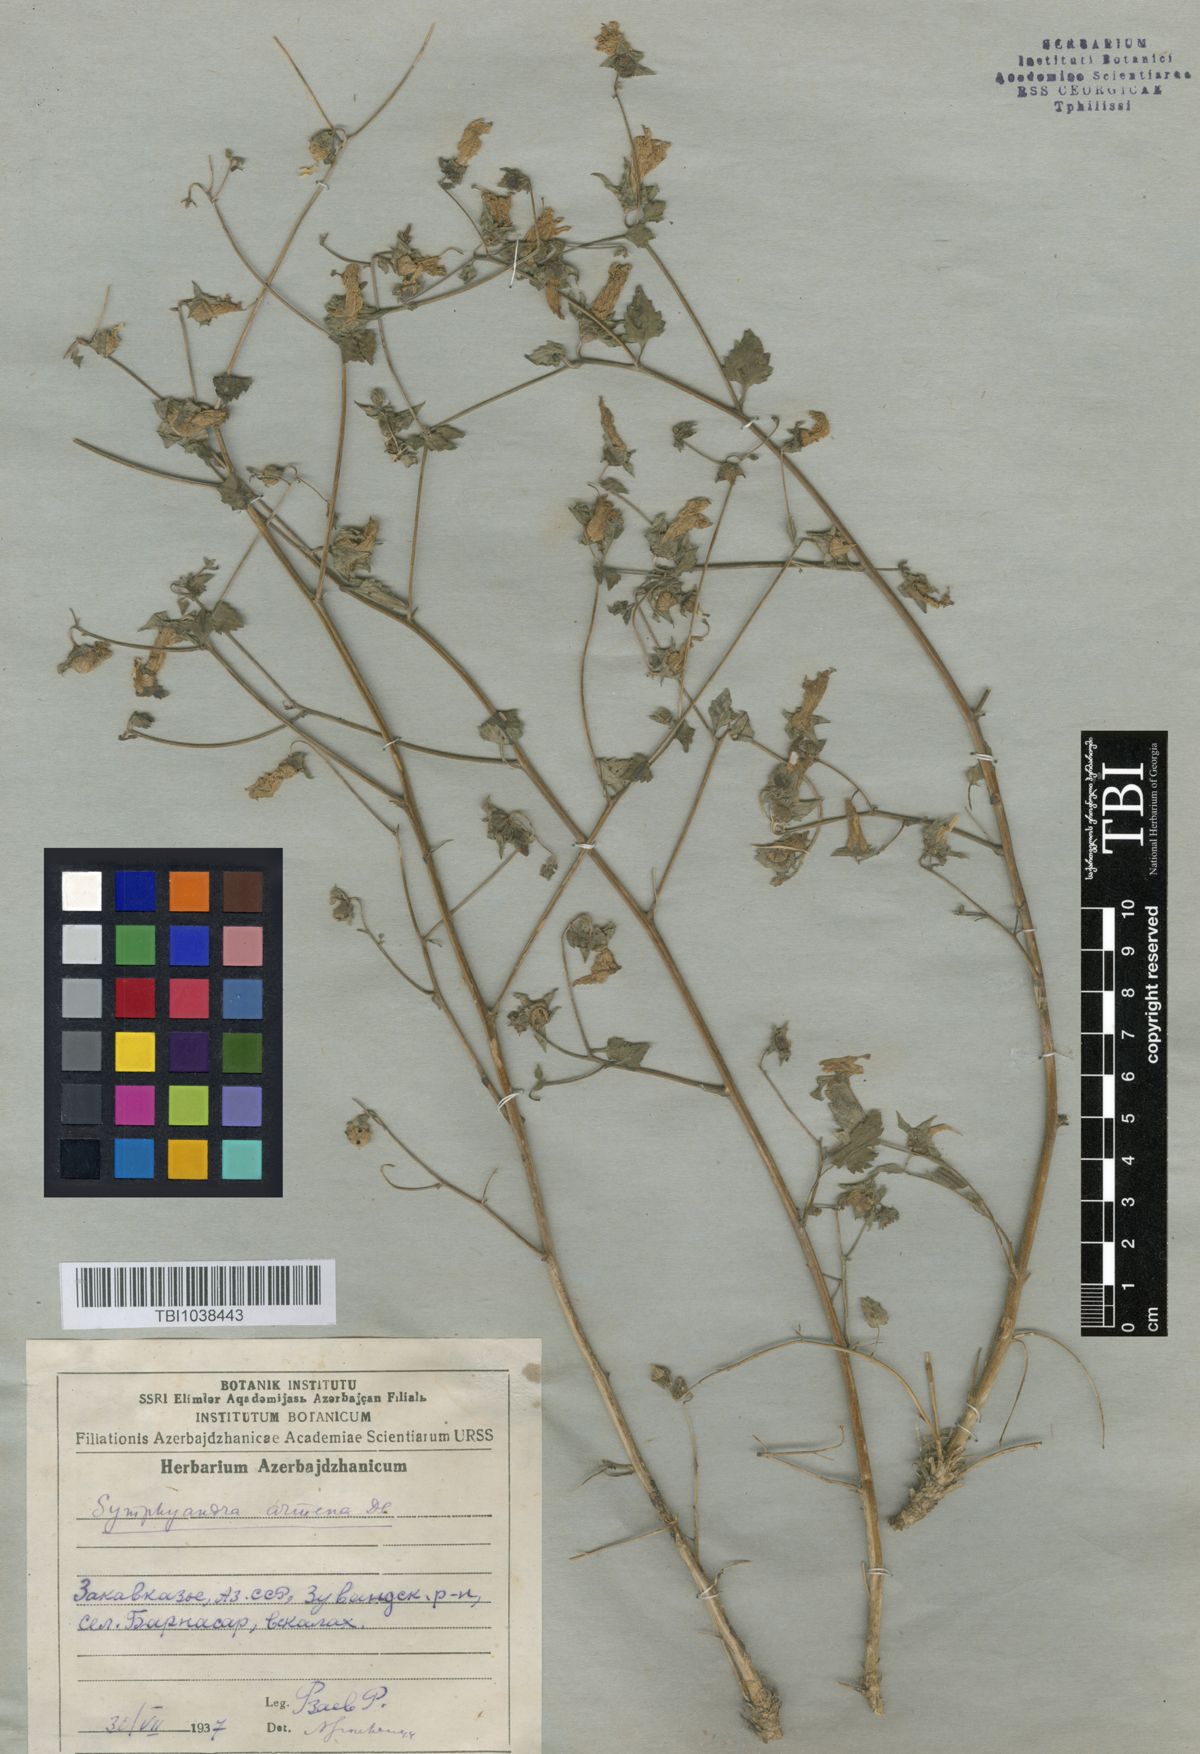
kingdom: Plantae
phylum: Tracheophyta
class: Magnoliopsida
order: Asterales
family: Campanulaceae
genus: Campanula
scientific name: Campanula armena
